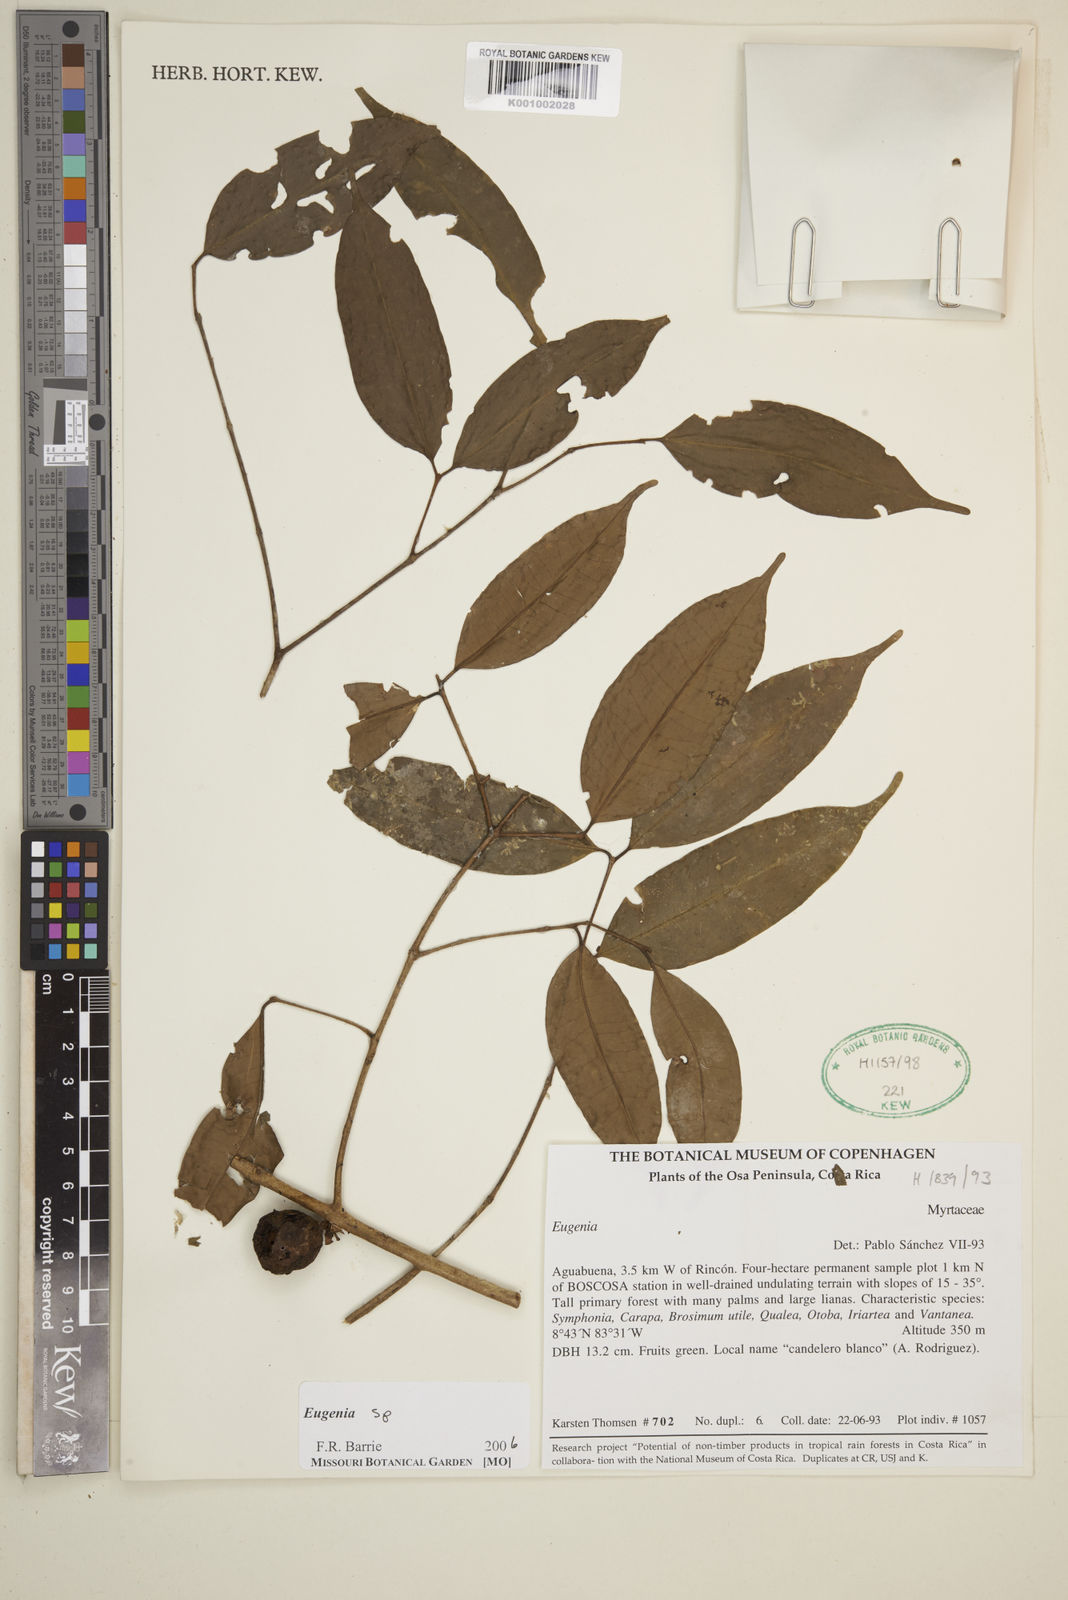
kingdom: Plantae
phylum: Tracheophyta
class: Magnoliopsida
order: Myrtales
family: Myrtaceae
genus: Eugenia
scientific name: Eugenia
